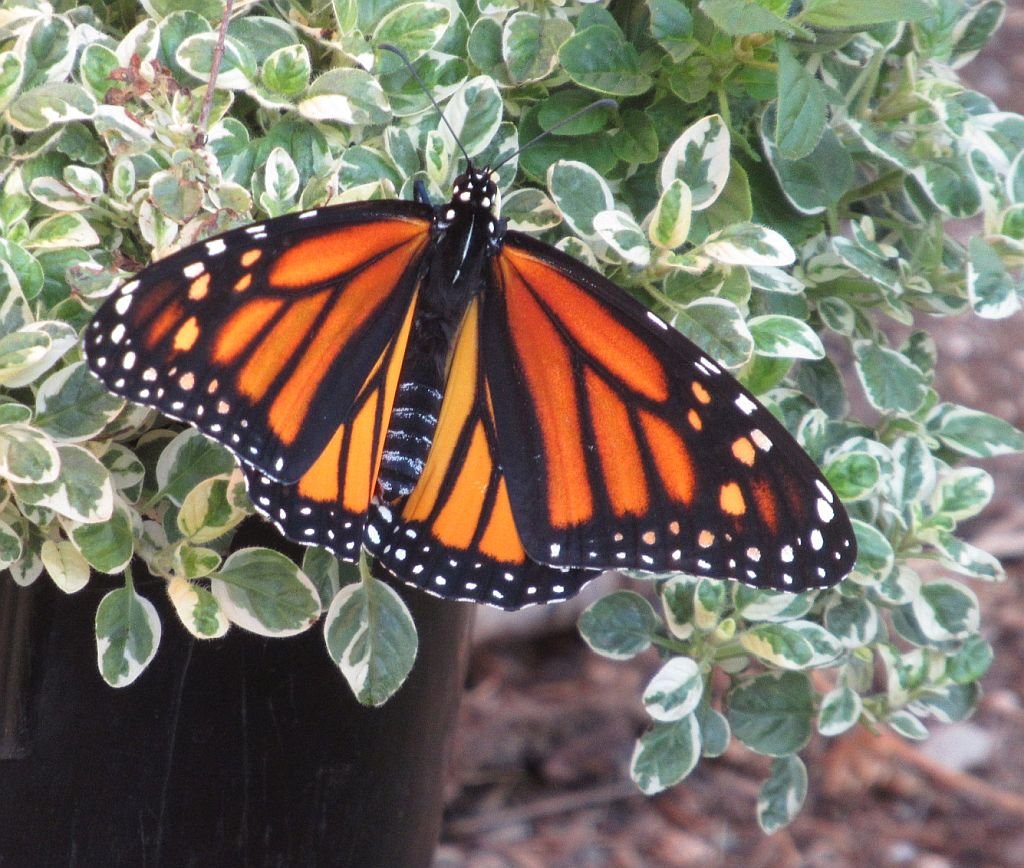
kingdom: Animalia
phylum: Arthropoda
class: Insecta
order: Lepidoptera
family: Nymphalidae
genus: Danaus
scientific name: Danaus plexippus
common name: Monarch
